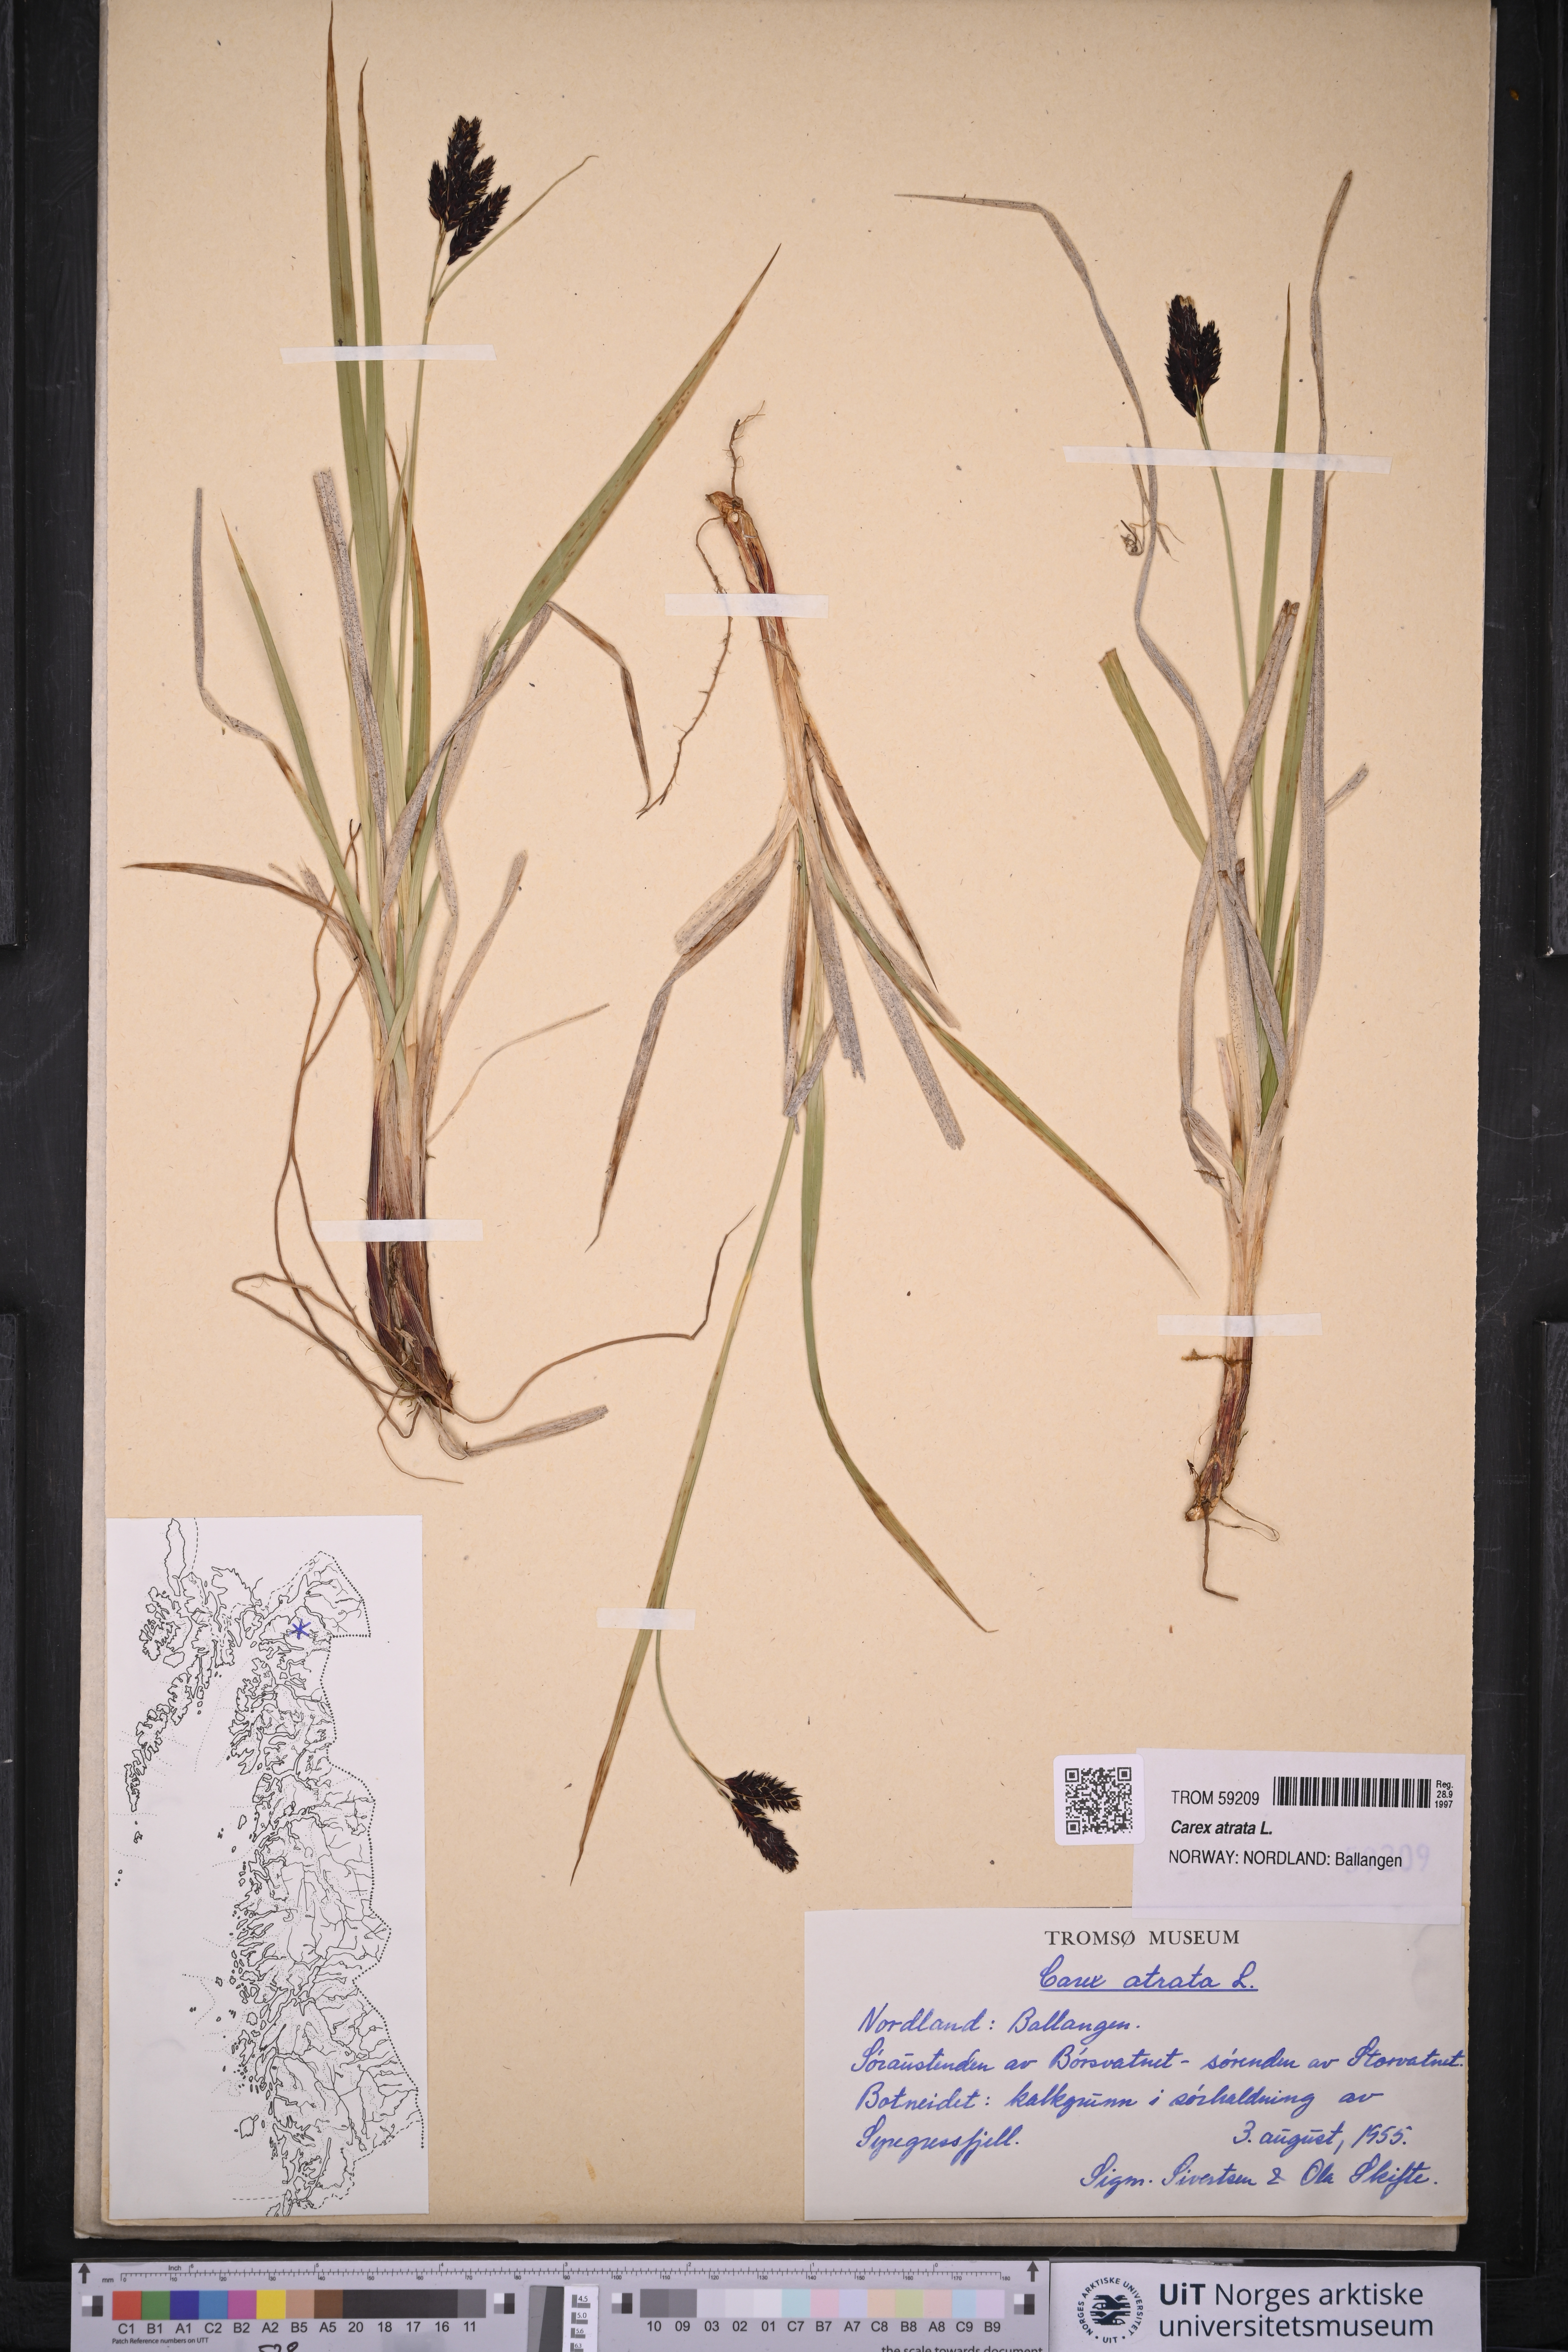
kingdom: Plantae
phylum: Tracheophyta
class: Liliopsida
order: Poales
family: Cyperaceae
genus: Carex
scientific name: Carex atrata
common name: Black alpine sedge
